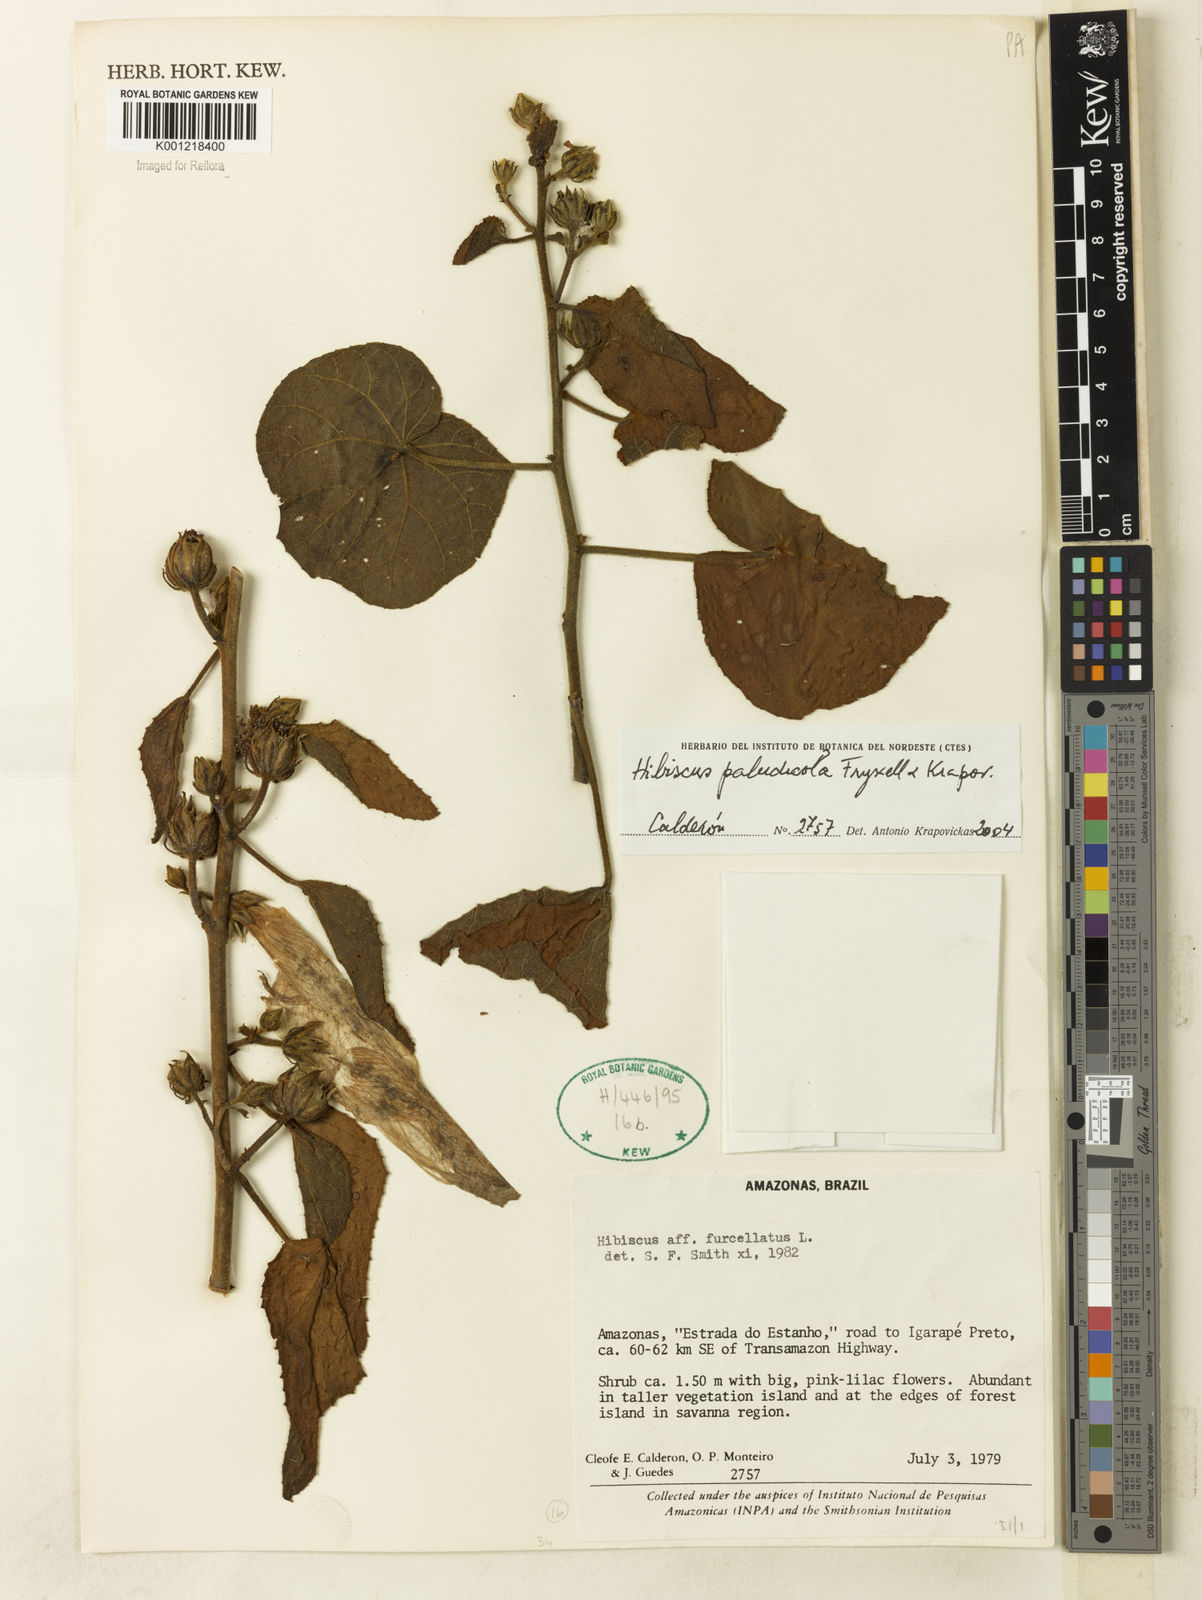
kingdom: Plantae
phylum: Tracheophyta
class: Magnoliopsida
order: Malvales
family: Malvaceae
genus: Hibiscus
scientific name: Hibiscus paludicola
